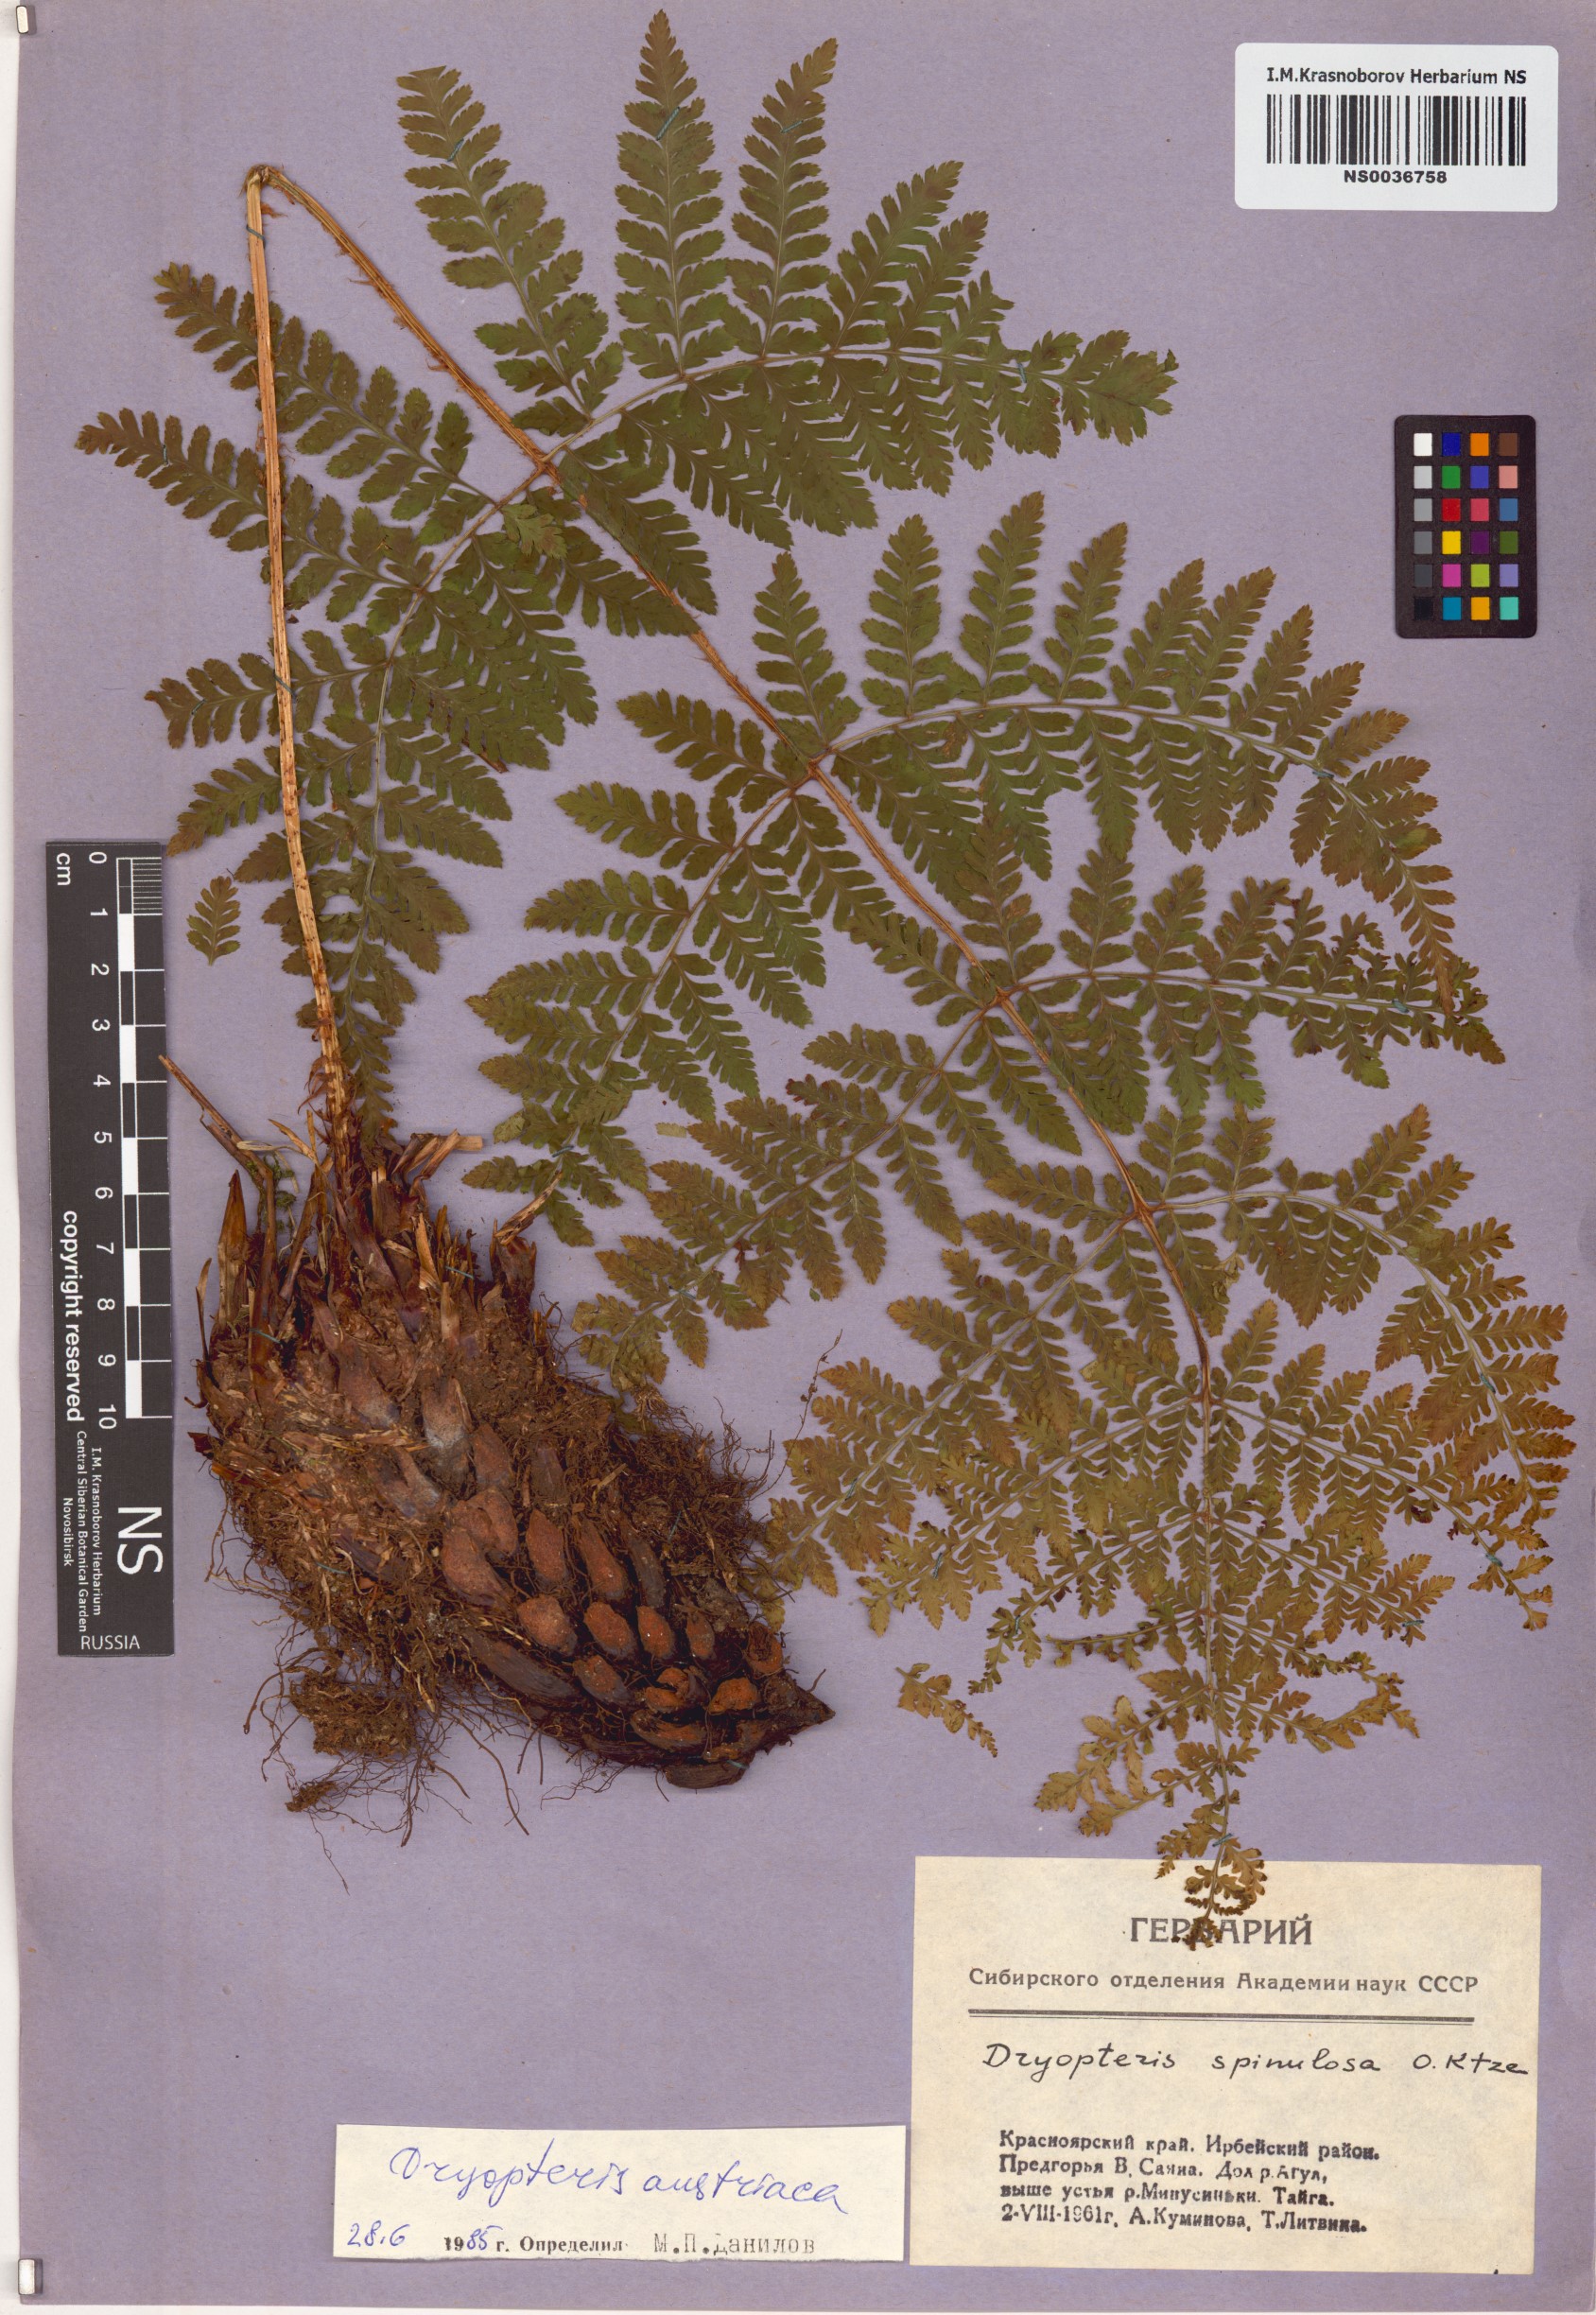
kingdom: Plantae
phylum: Tracheophyta
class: Polypodiopsida
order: Polypodiales
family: Dryopteridaceae
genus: Dryopteris
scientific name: Dryopteris dilatata
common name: Broad buckler-fern
